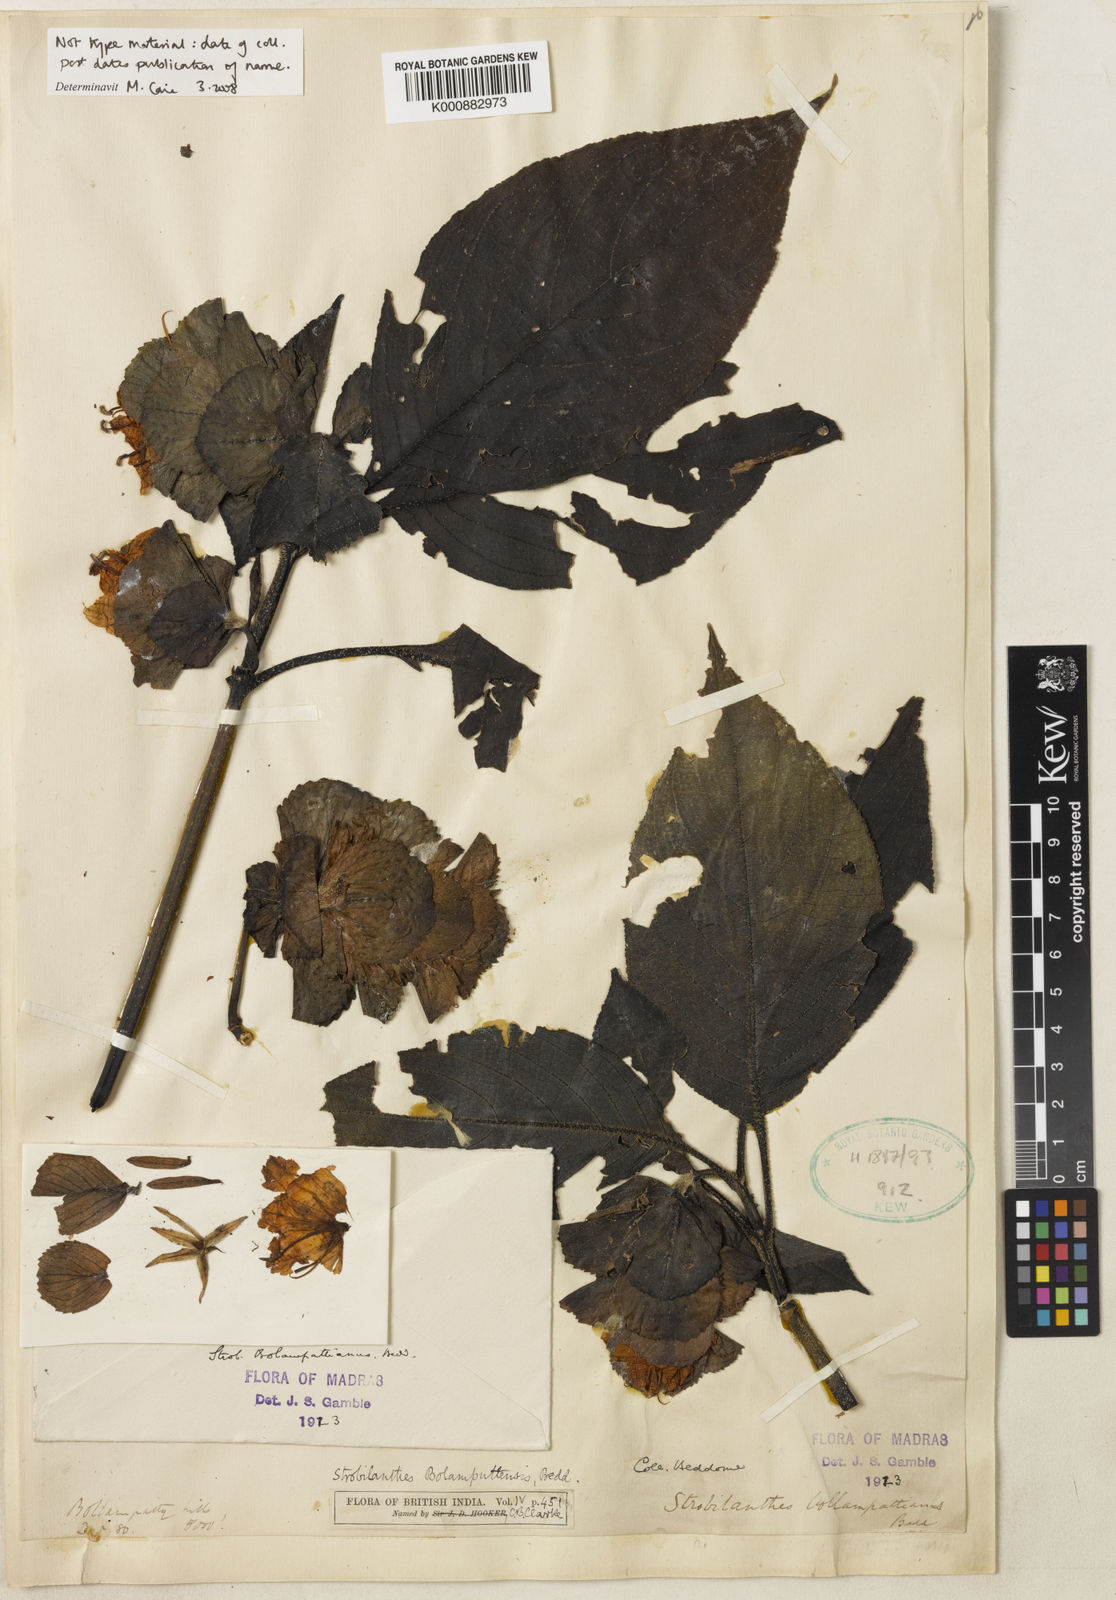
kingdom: Plantae
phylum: Tracheophyta
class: Magnoliopsida
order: Lamiales
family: Acanthaceae
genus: Strobilanthes
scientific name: Strobilanthes bolumpattiana
